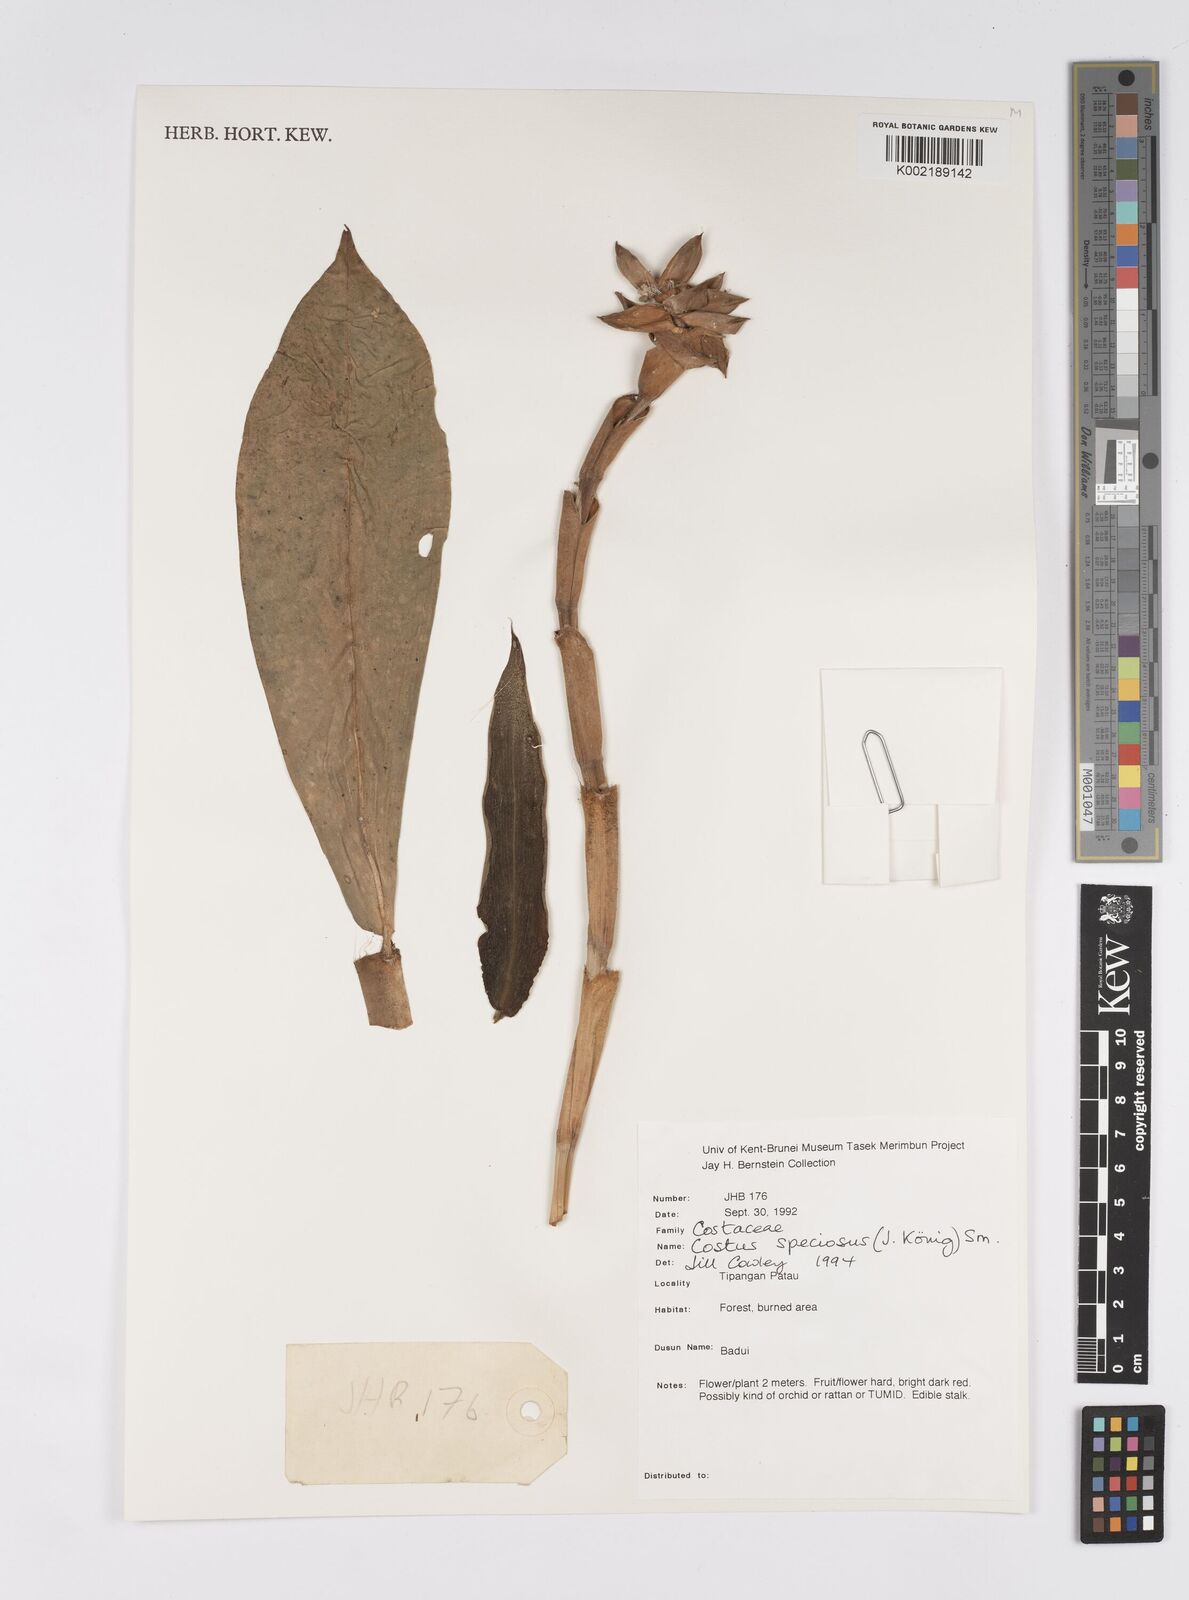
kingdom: Plantae
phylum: Tracheophyta
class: Liliopsida
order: Zingiberales
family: Costaceae
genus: Hellenia
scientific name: Hellenia speciosa
